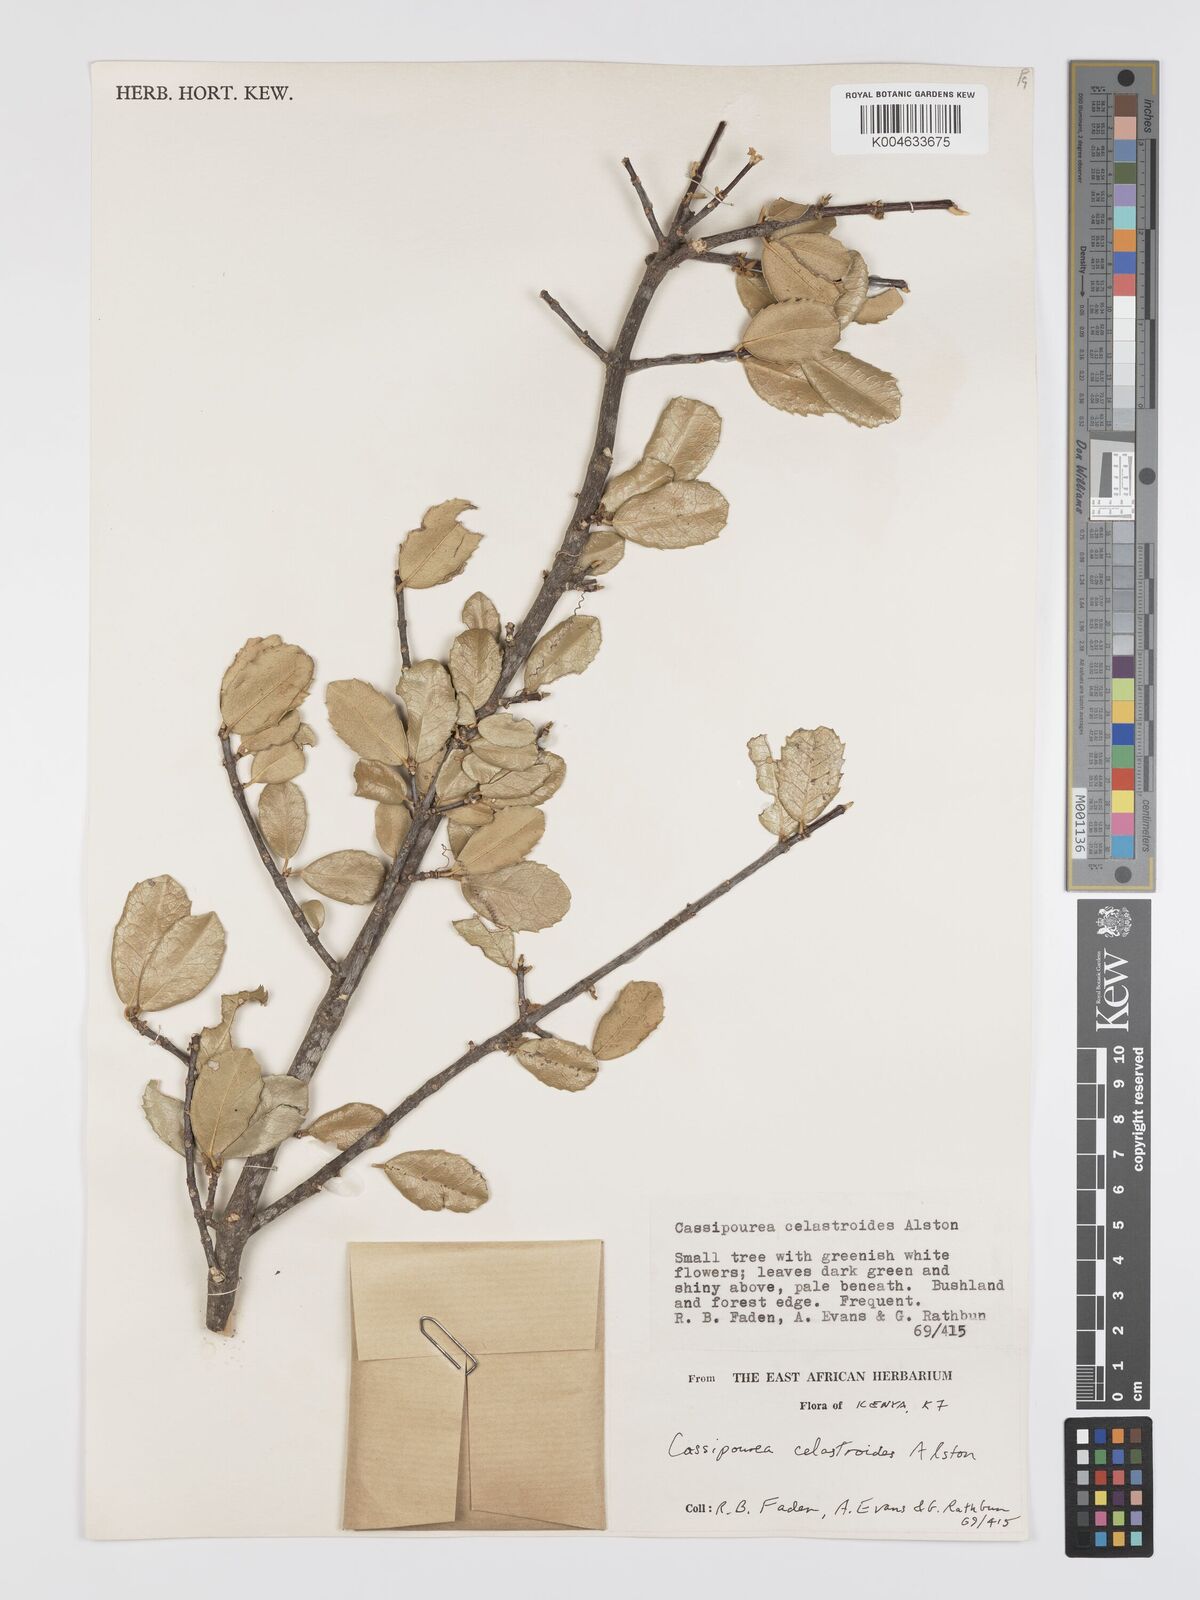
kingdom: Plantae
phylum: Tracheophyta
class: Magnoliopsida
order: Malpighiales
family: Rhizophoraceae
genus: Cassipourea
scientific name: Cassipourea celastroides
